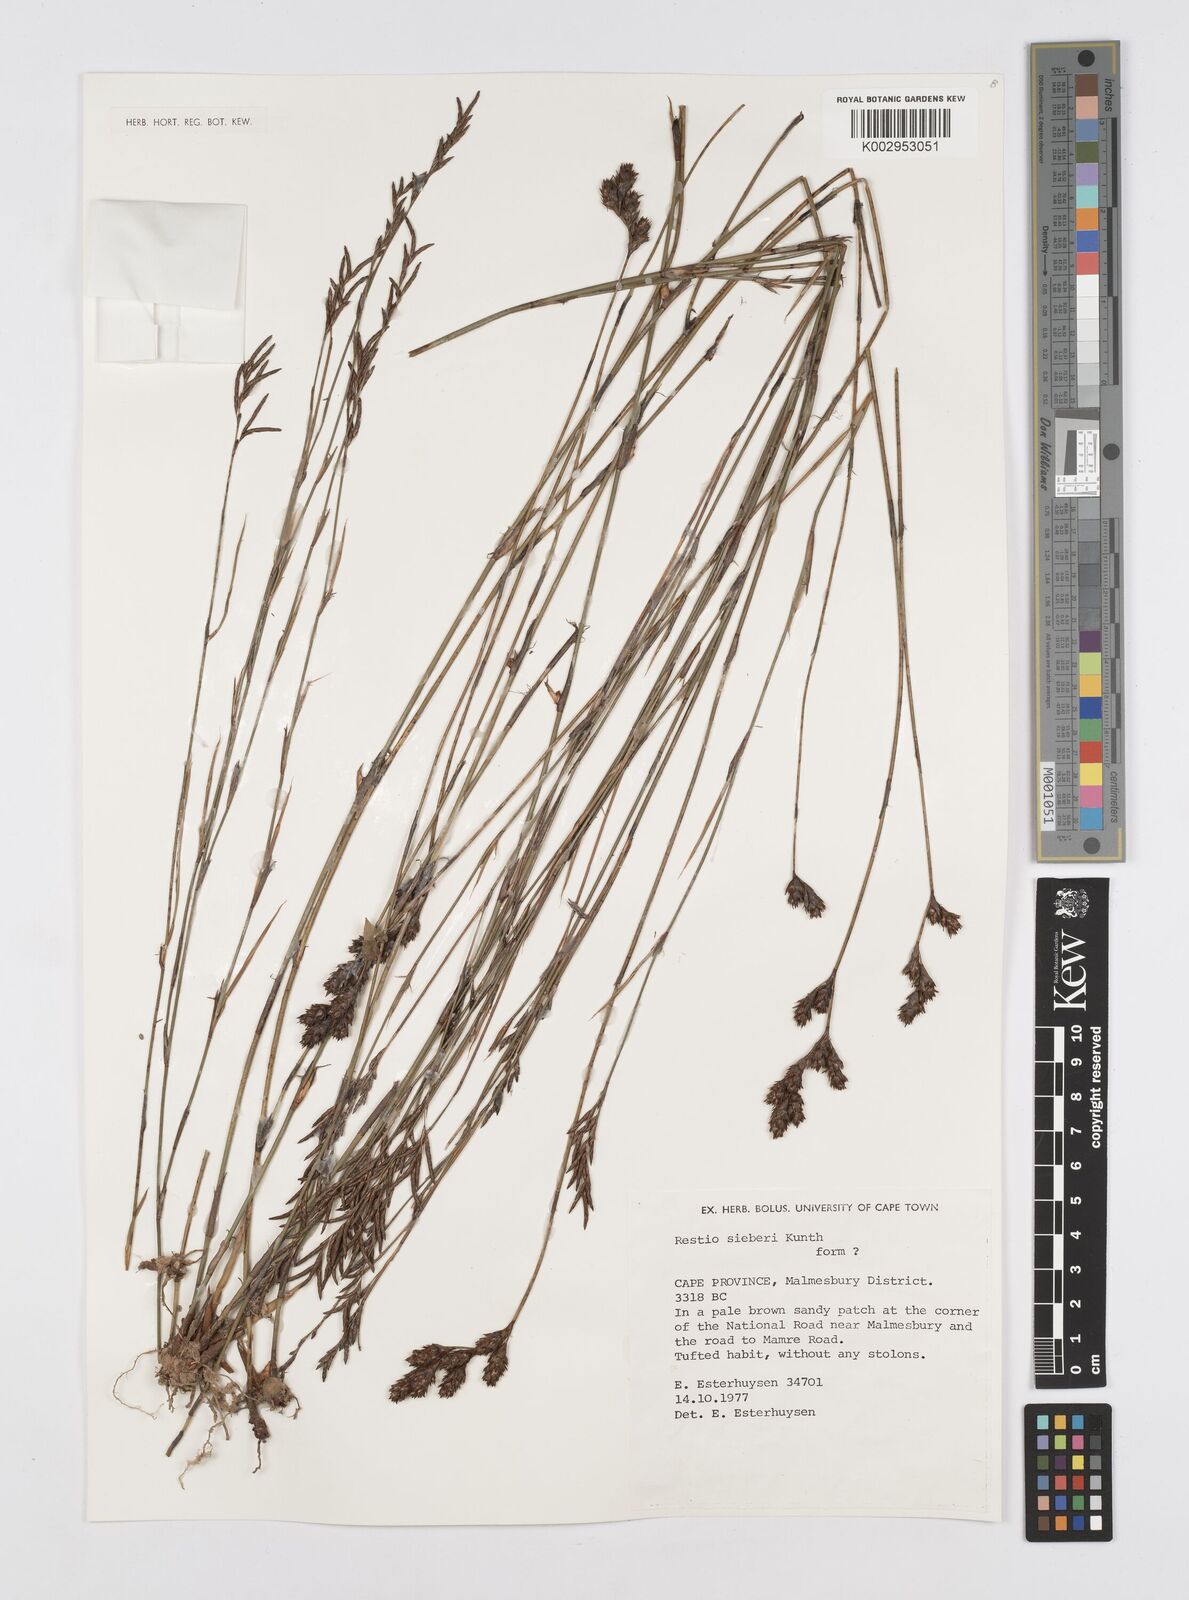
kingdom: Plantae
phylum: Tracheophyta
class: Liliopsida
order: Poales
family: Restionaceae
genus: Restio
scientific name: Restio sieberi
